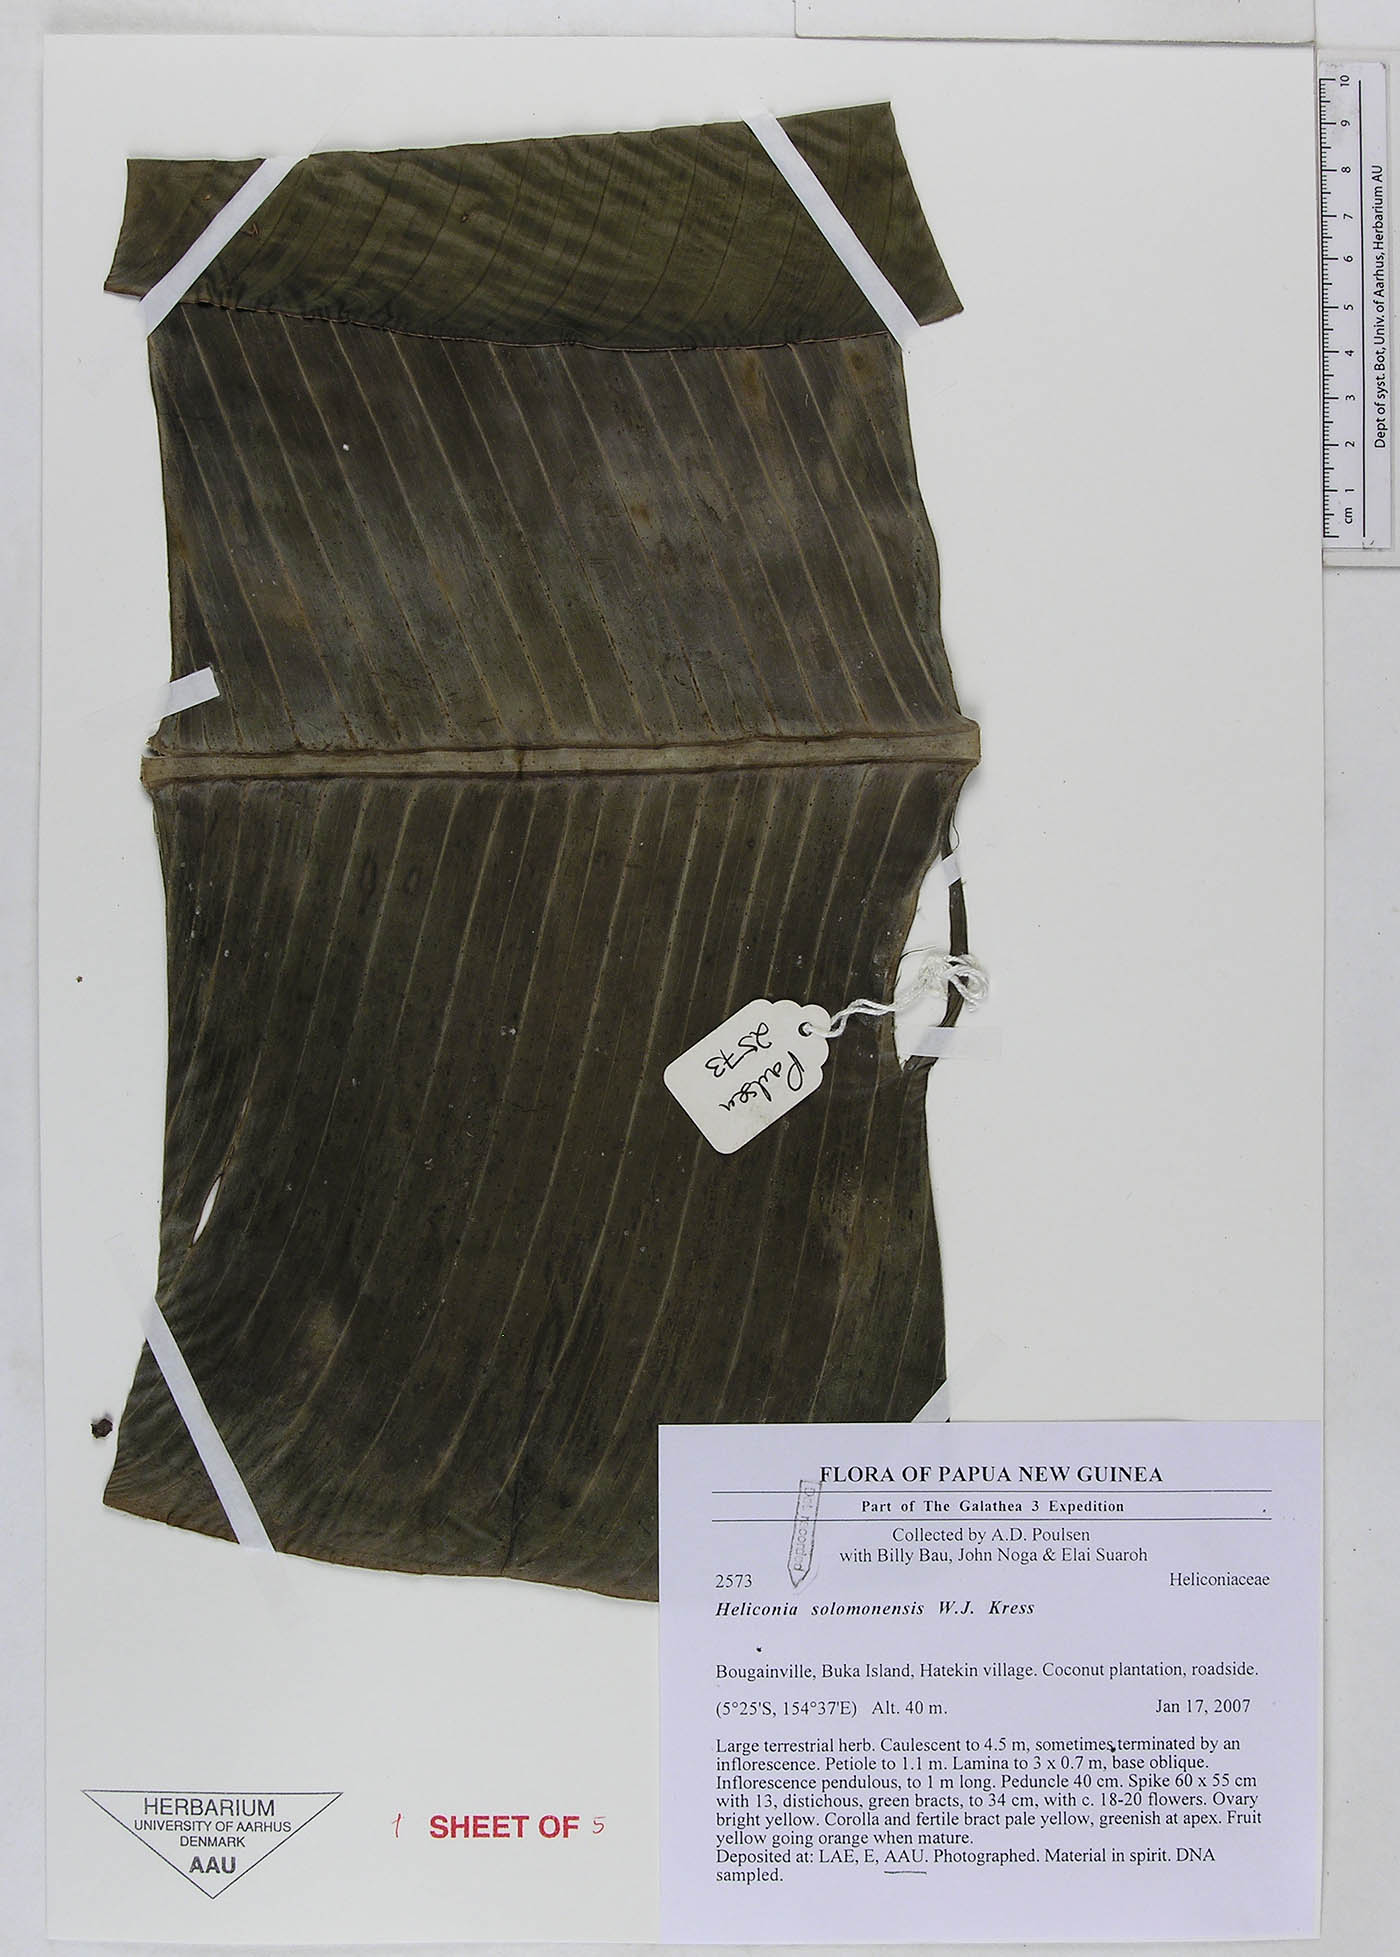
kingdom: Plantae
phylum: Tracheophyta
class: Liliopsida
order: Zingiberales
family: Heliconiaceae
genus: Heliconia
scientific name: Heliconia solomonensis
